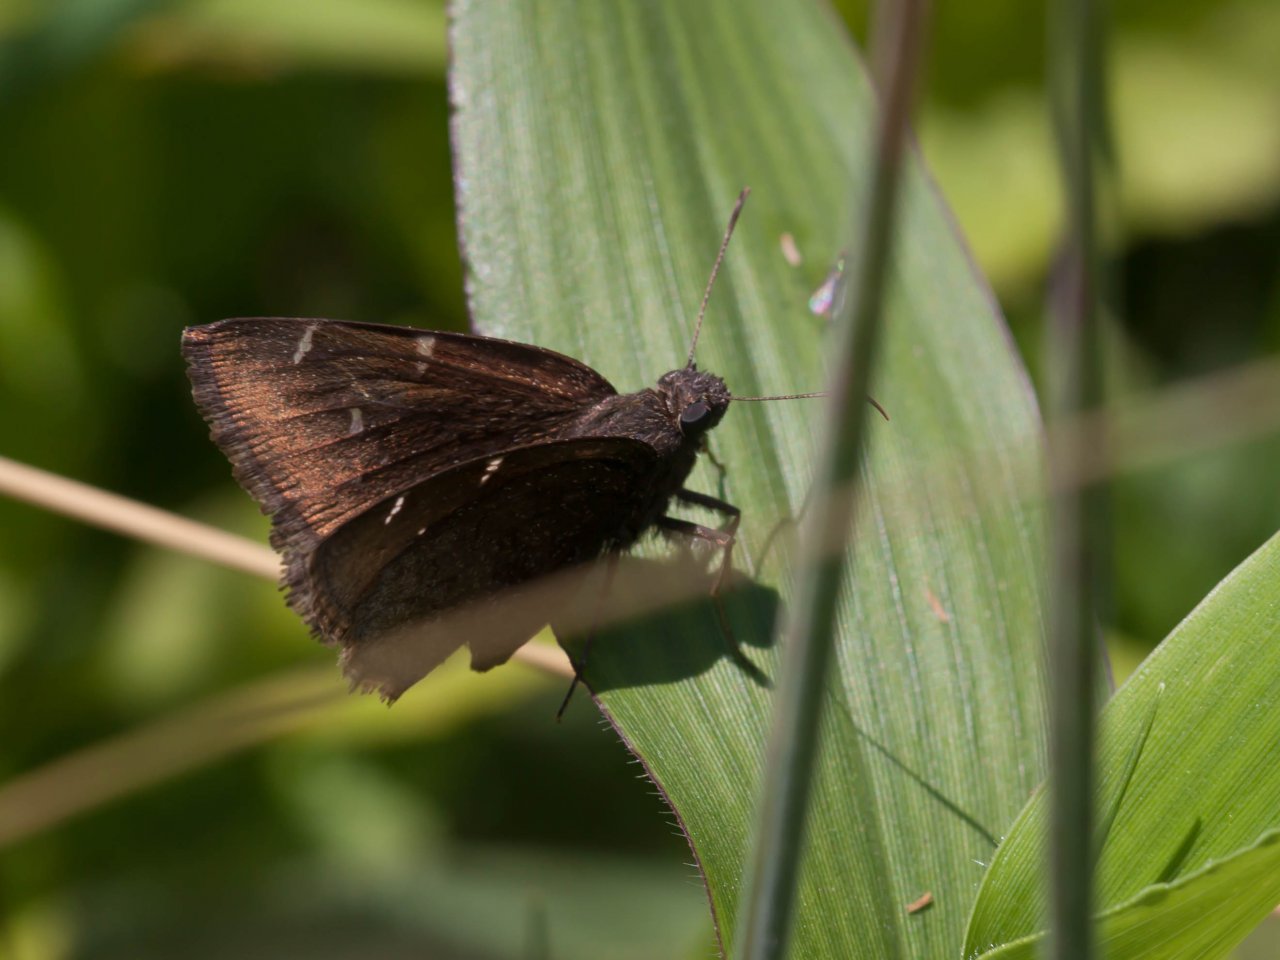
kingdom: Animalia
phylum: Arthropoda
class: Insecta
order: Lepidoptera
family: Hesperiidae
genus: Autochton
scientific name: Autochton
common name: Northern Cloudywing
